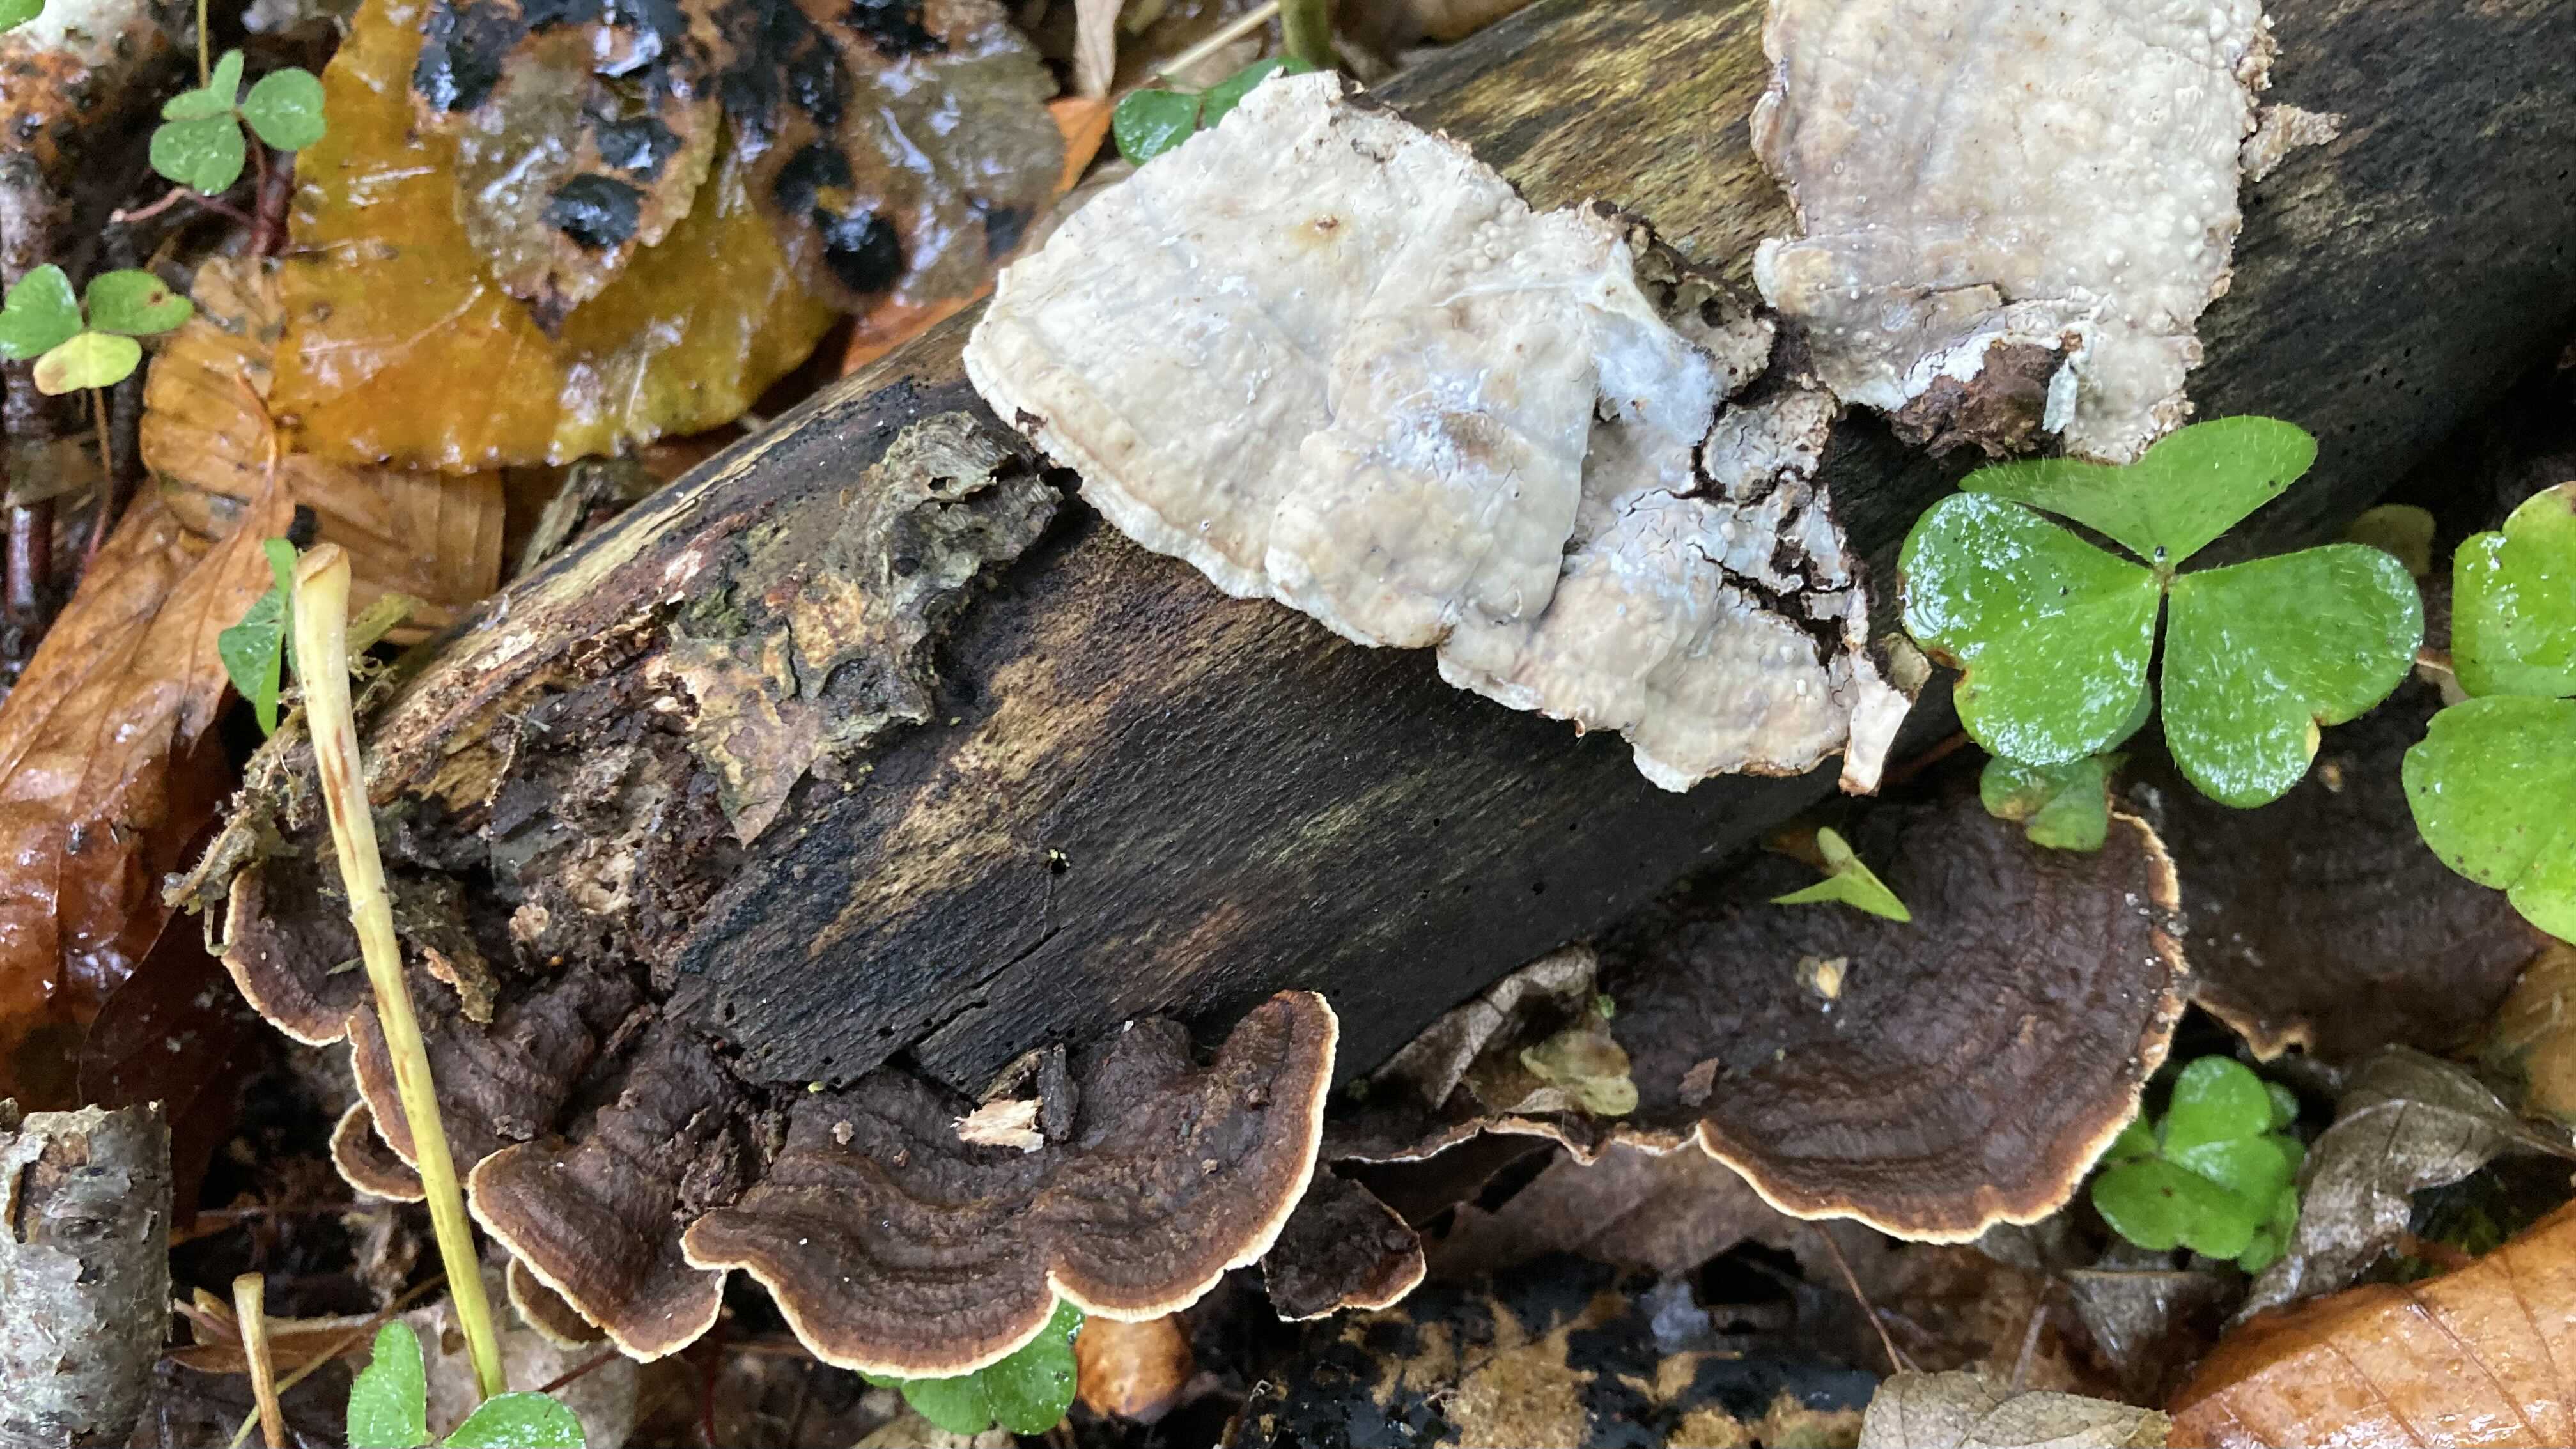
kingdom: Fungi
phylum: Basidiomycota
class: Agaricomycetes
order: Russulales
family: Hericiaceae
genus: Laxitextum
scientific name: Laxitextum bicolor
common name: tvefarvet filtskind
